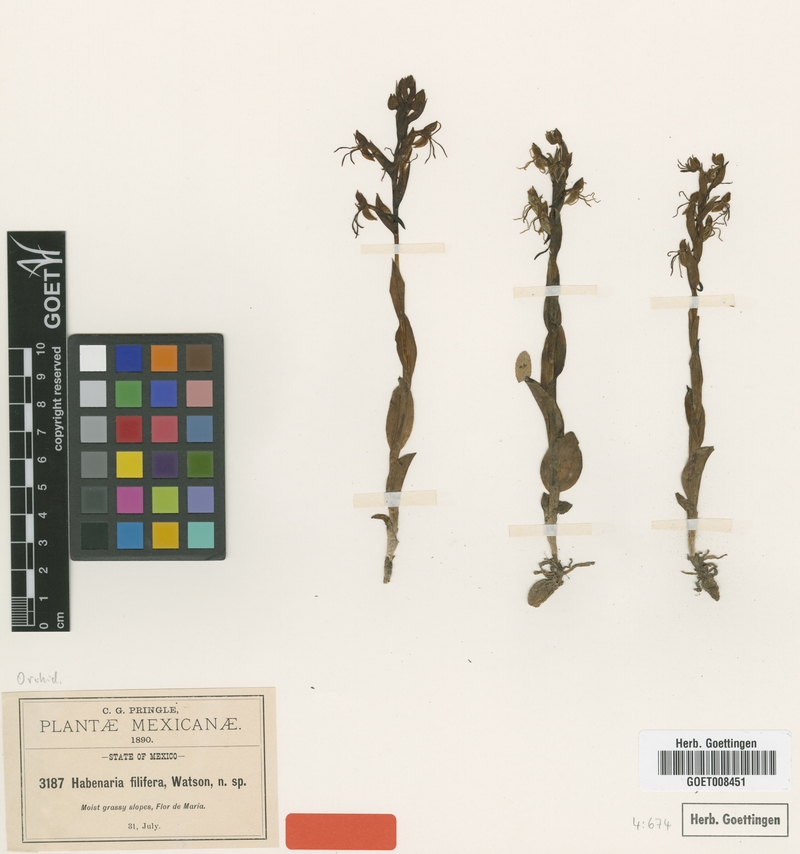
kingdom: Plantae
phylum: Tracheophyta
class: Liliopsida
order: Asparagales
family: Orchidaceae
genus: Habenaria
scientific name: Habenaria filifera
